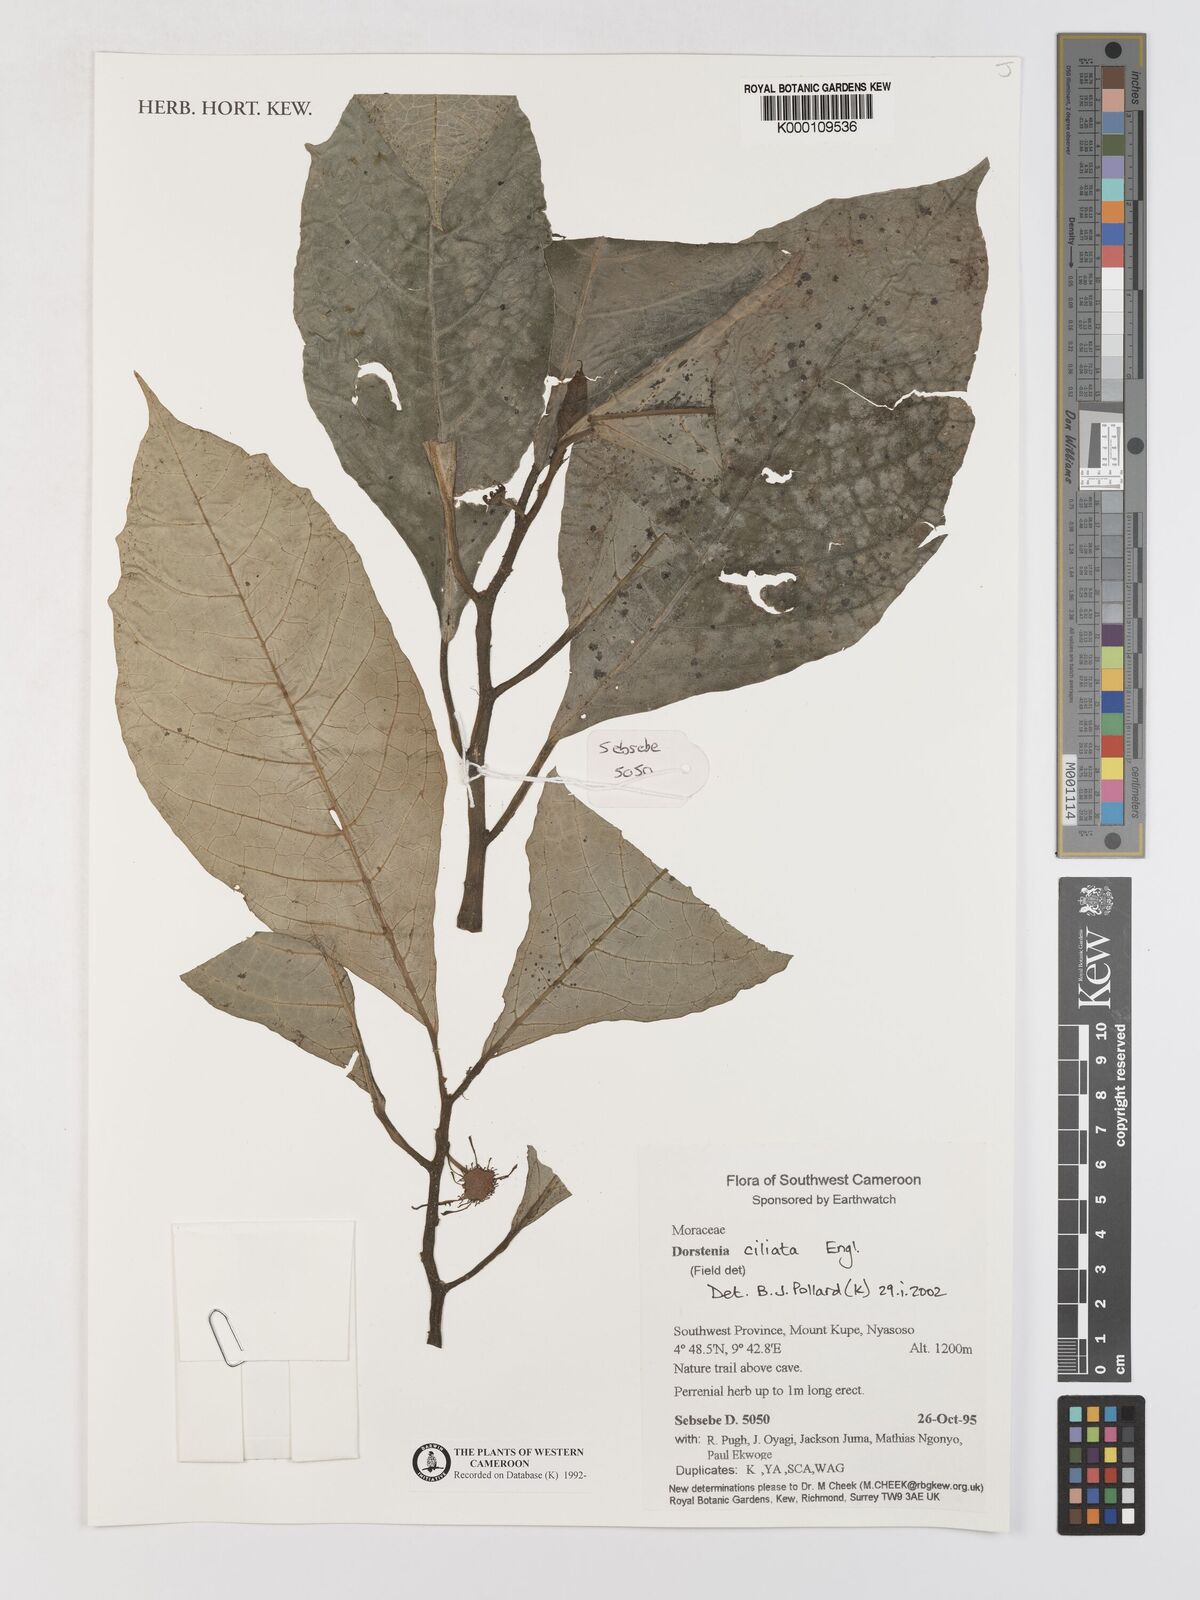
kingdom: Plantae
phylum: Tracheophyta
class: Magnoliopsida
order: Rosales
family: Moraceae
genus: Dorstenia
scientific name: Dorstenia ciliata
